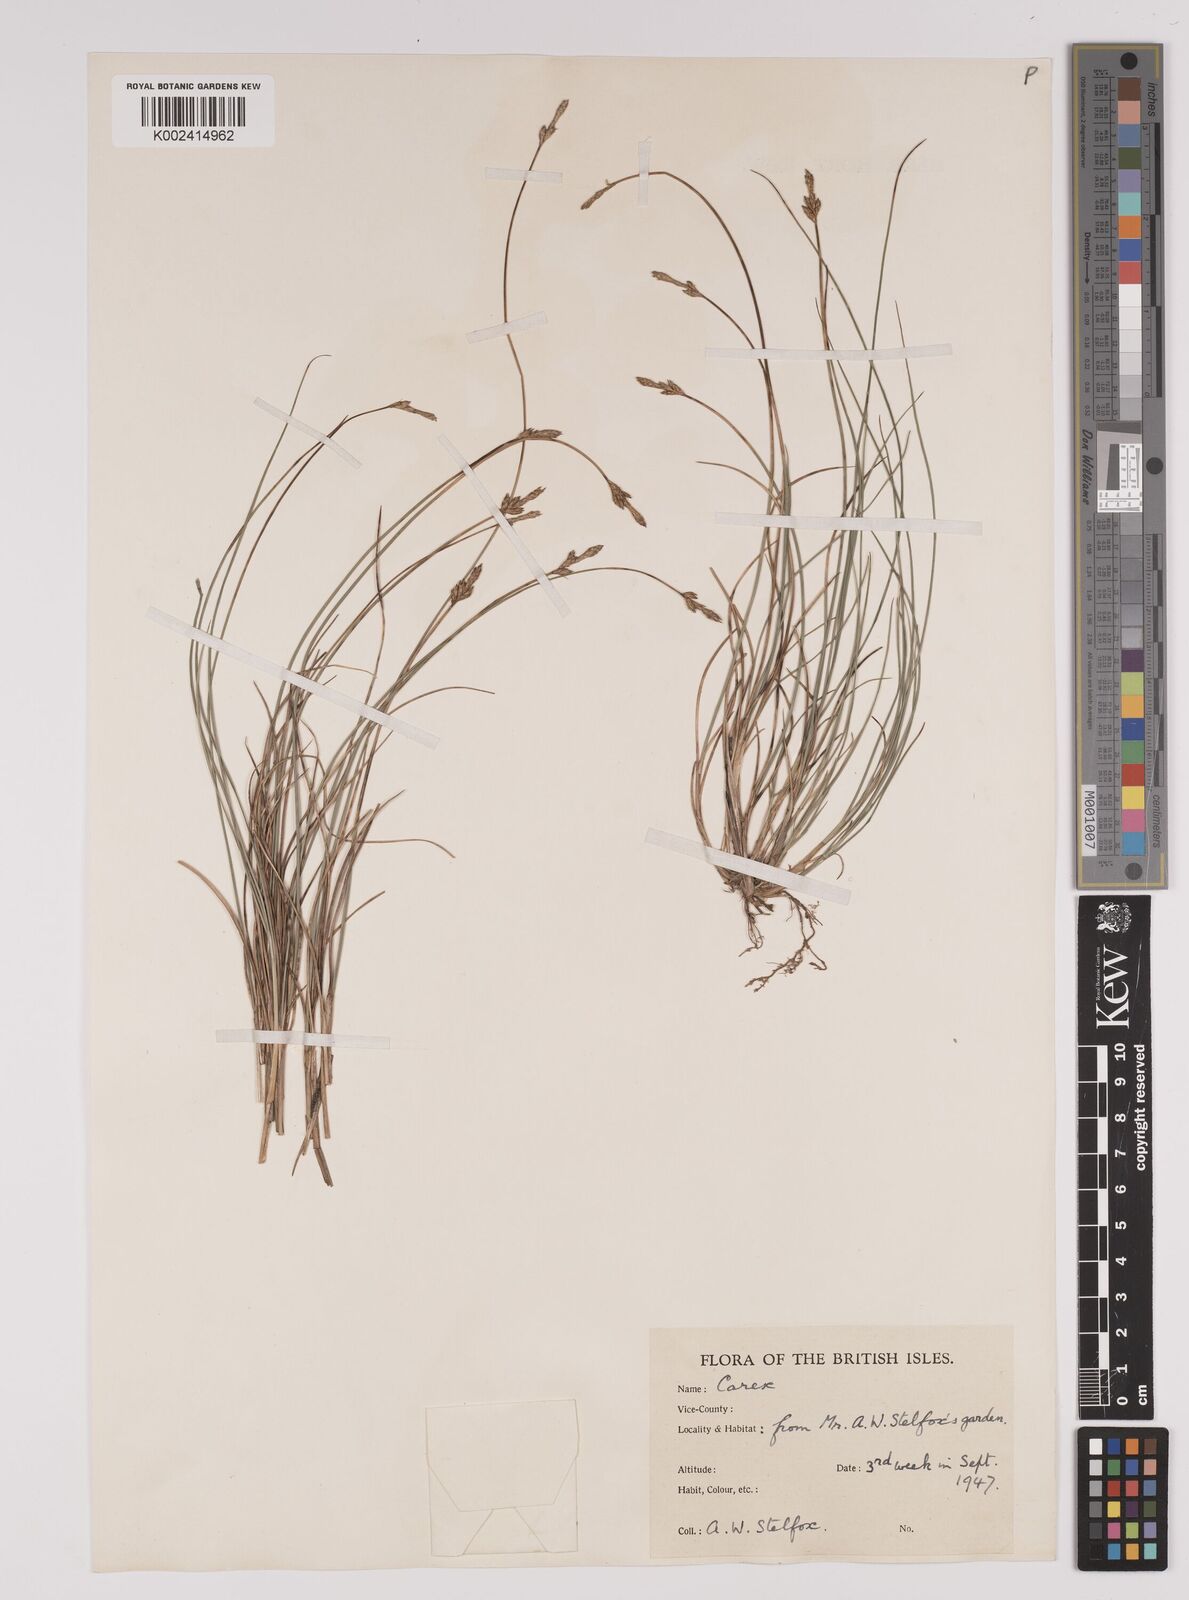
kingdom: Plantae
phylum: Tracheophyta
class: Liliopsida
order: Poales
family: Cyperaceae
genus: Carex
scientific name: Carex dioica
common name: Dioecious sedge
